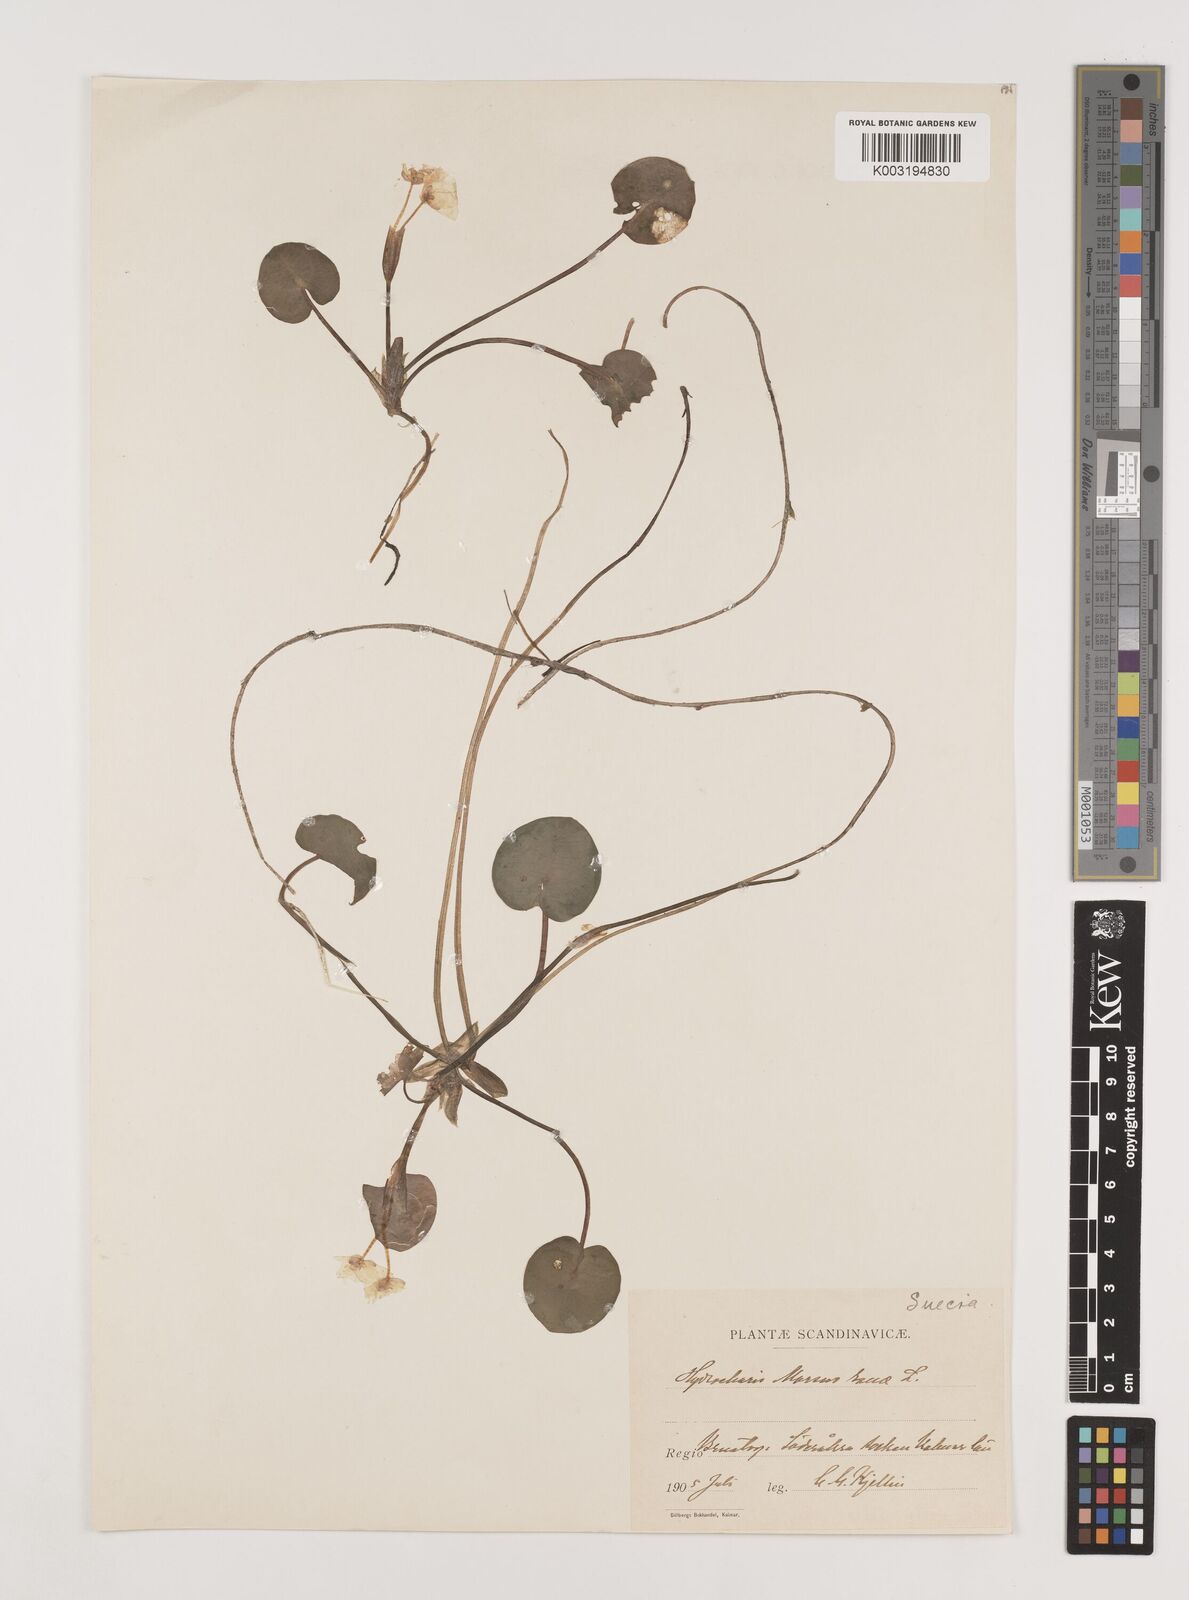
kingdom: Plantae
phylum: Tracheophyta
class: Liliopsida
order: Alismatales
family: Hydrocharitaceae
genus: Hydrocharis
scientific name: Hydrocharis morsus-ranae
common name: Frogbit
